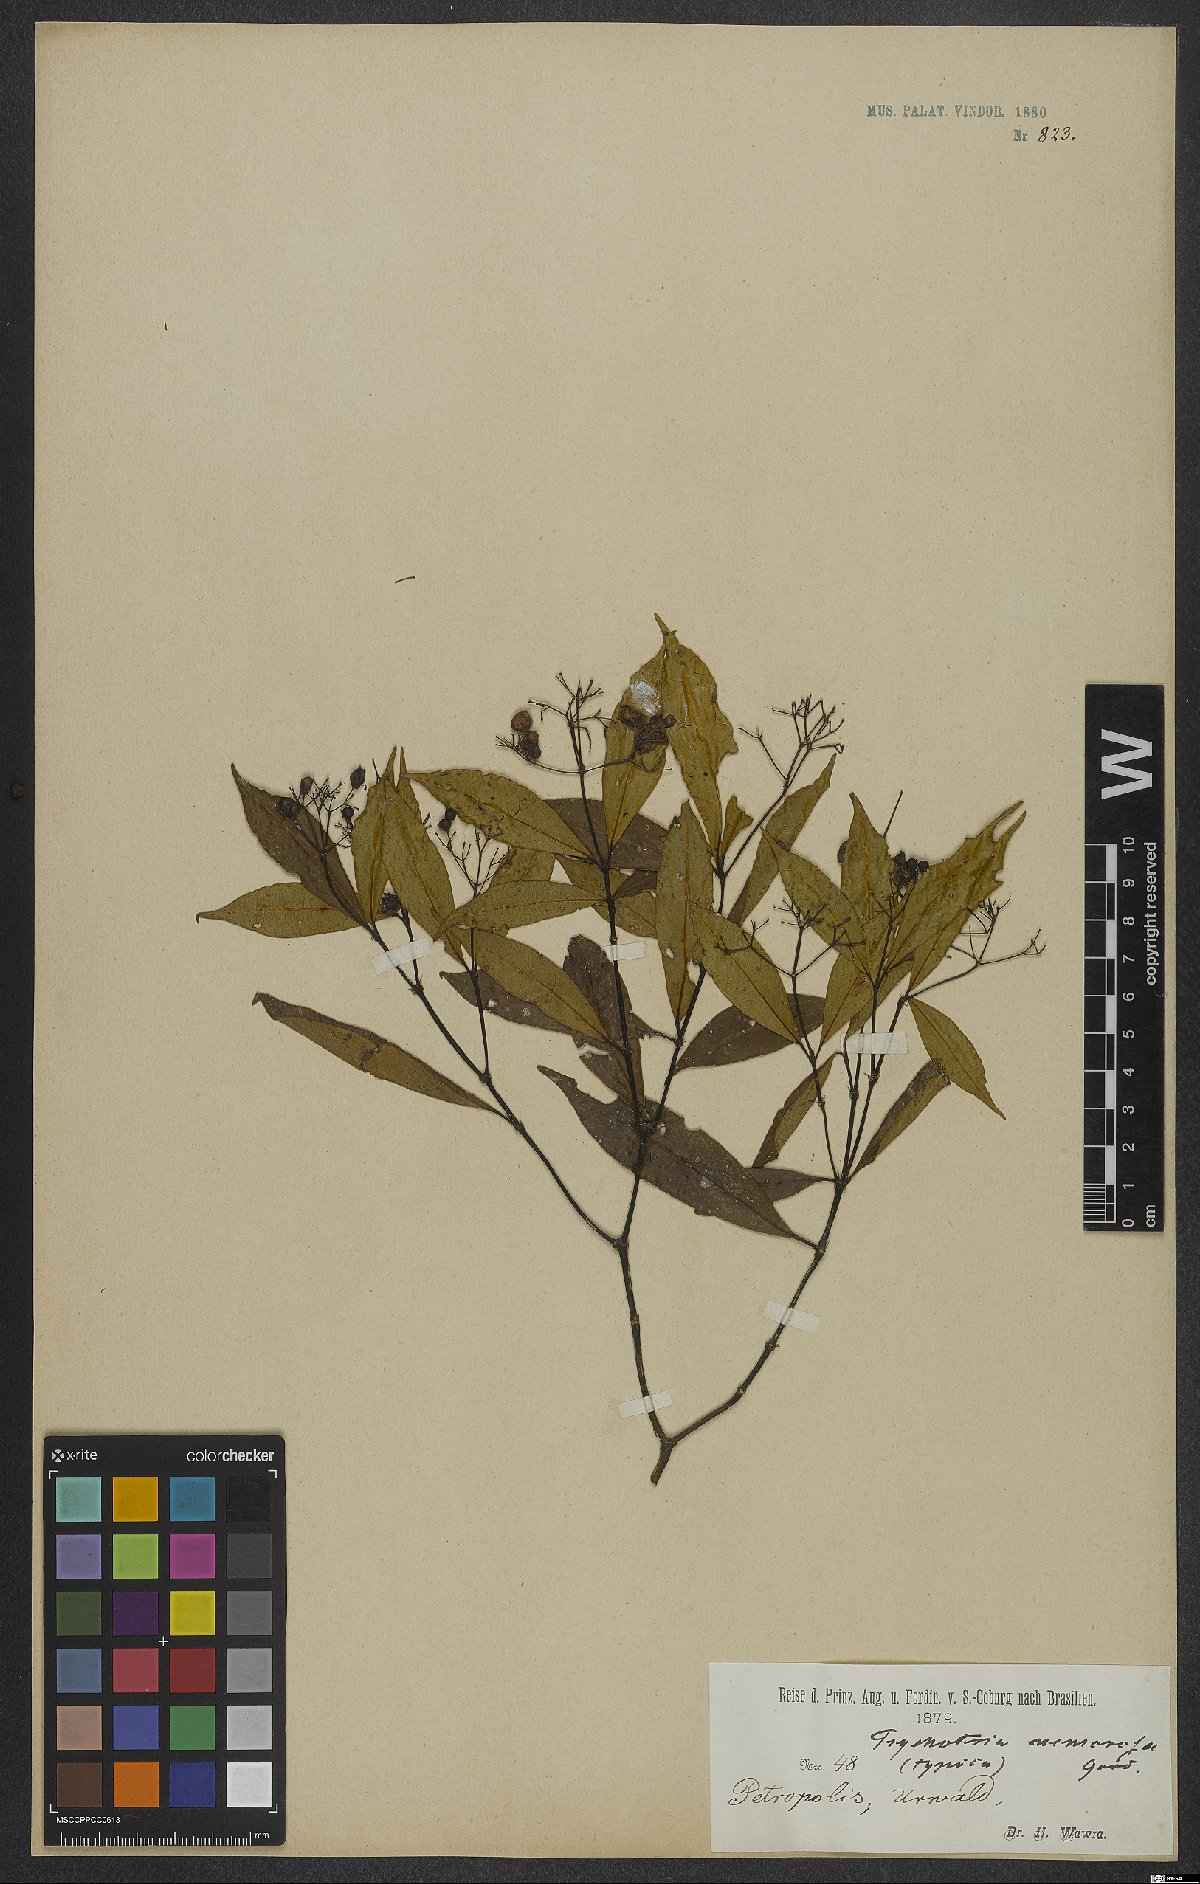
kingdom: Plantae
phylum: Tracheophyta
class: Magnoliopsida
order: Gentianales
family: Rubiaceae
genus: Psychotria
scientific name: Psychotria nemorosa
